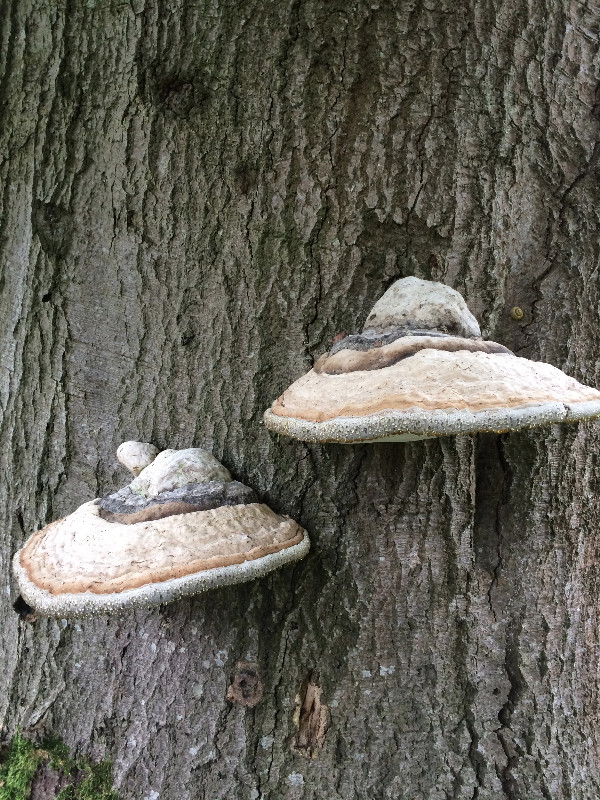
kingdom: Fungi
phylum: Basidiomycota
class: Agaricomycetes
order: Polyporales
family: Polyporaceae
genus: Fomes
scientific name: Fomes fomentarius
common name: tøndersvamp
